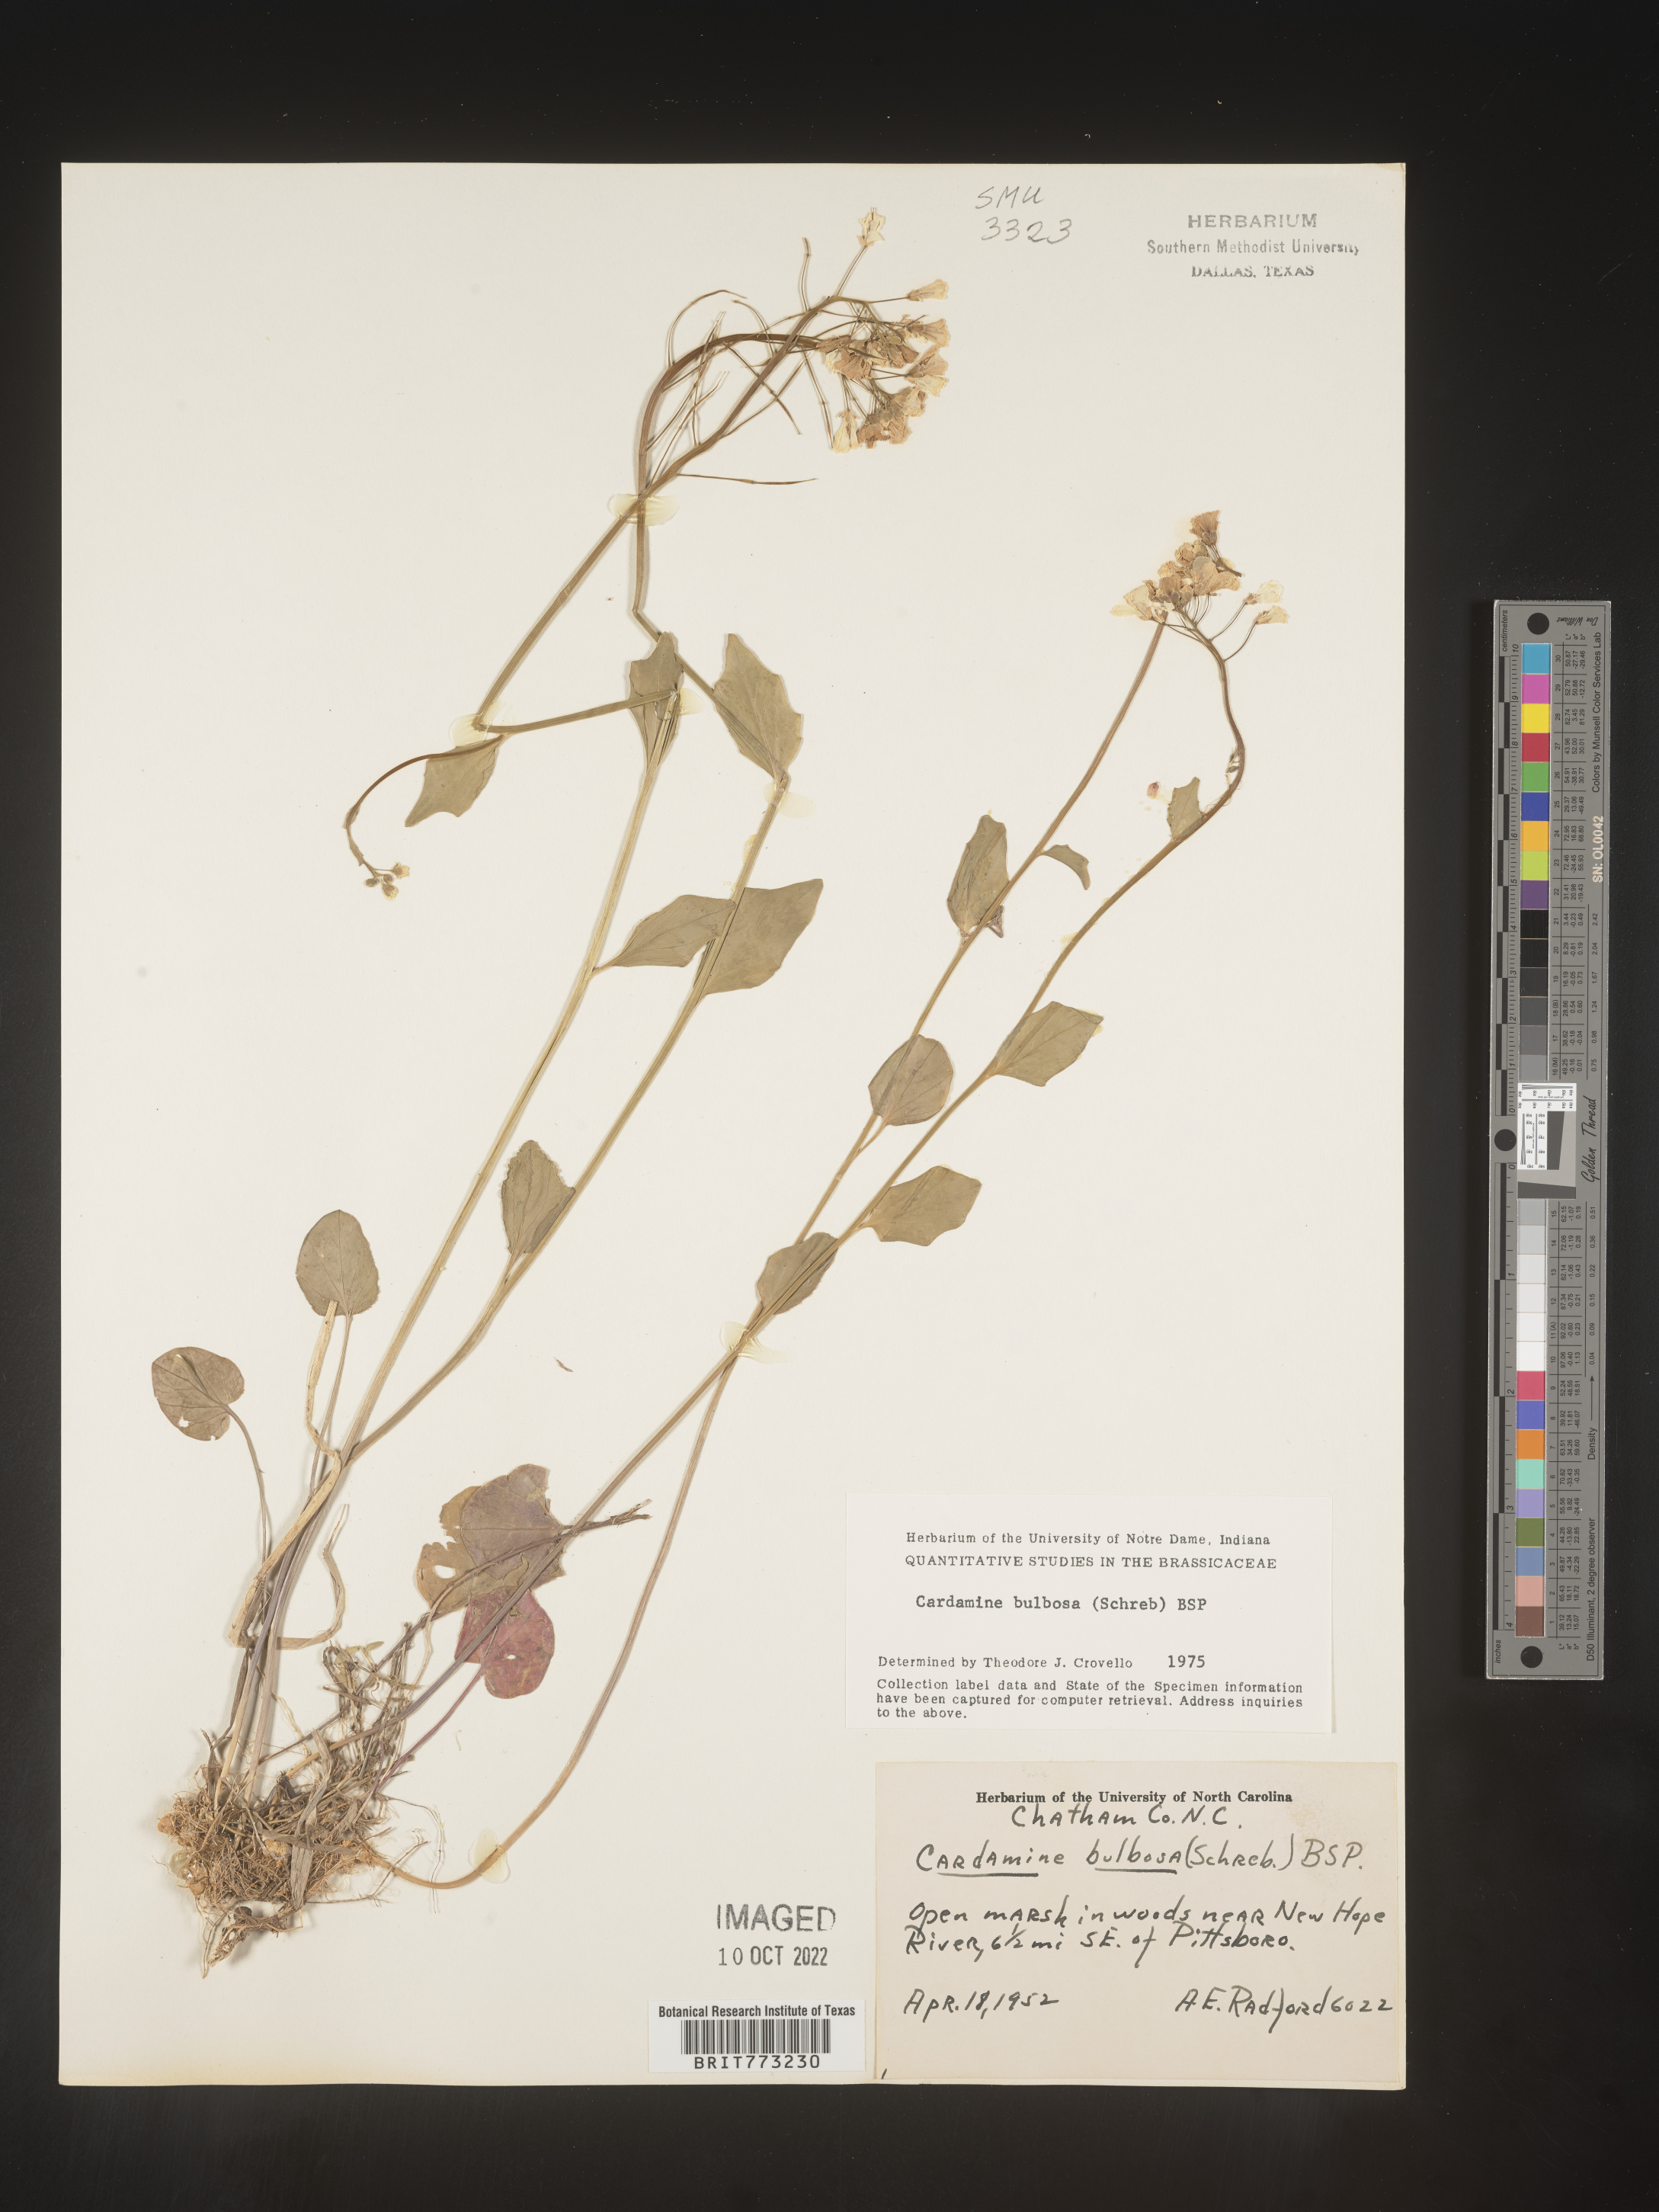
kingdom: Plantae
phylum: Tracheophyta
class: Magnoliopsida
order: Brassicales
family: Brassicaceae
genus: Cardamine
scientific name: Cardamine bulbosa
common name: Spring cress
